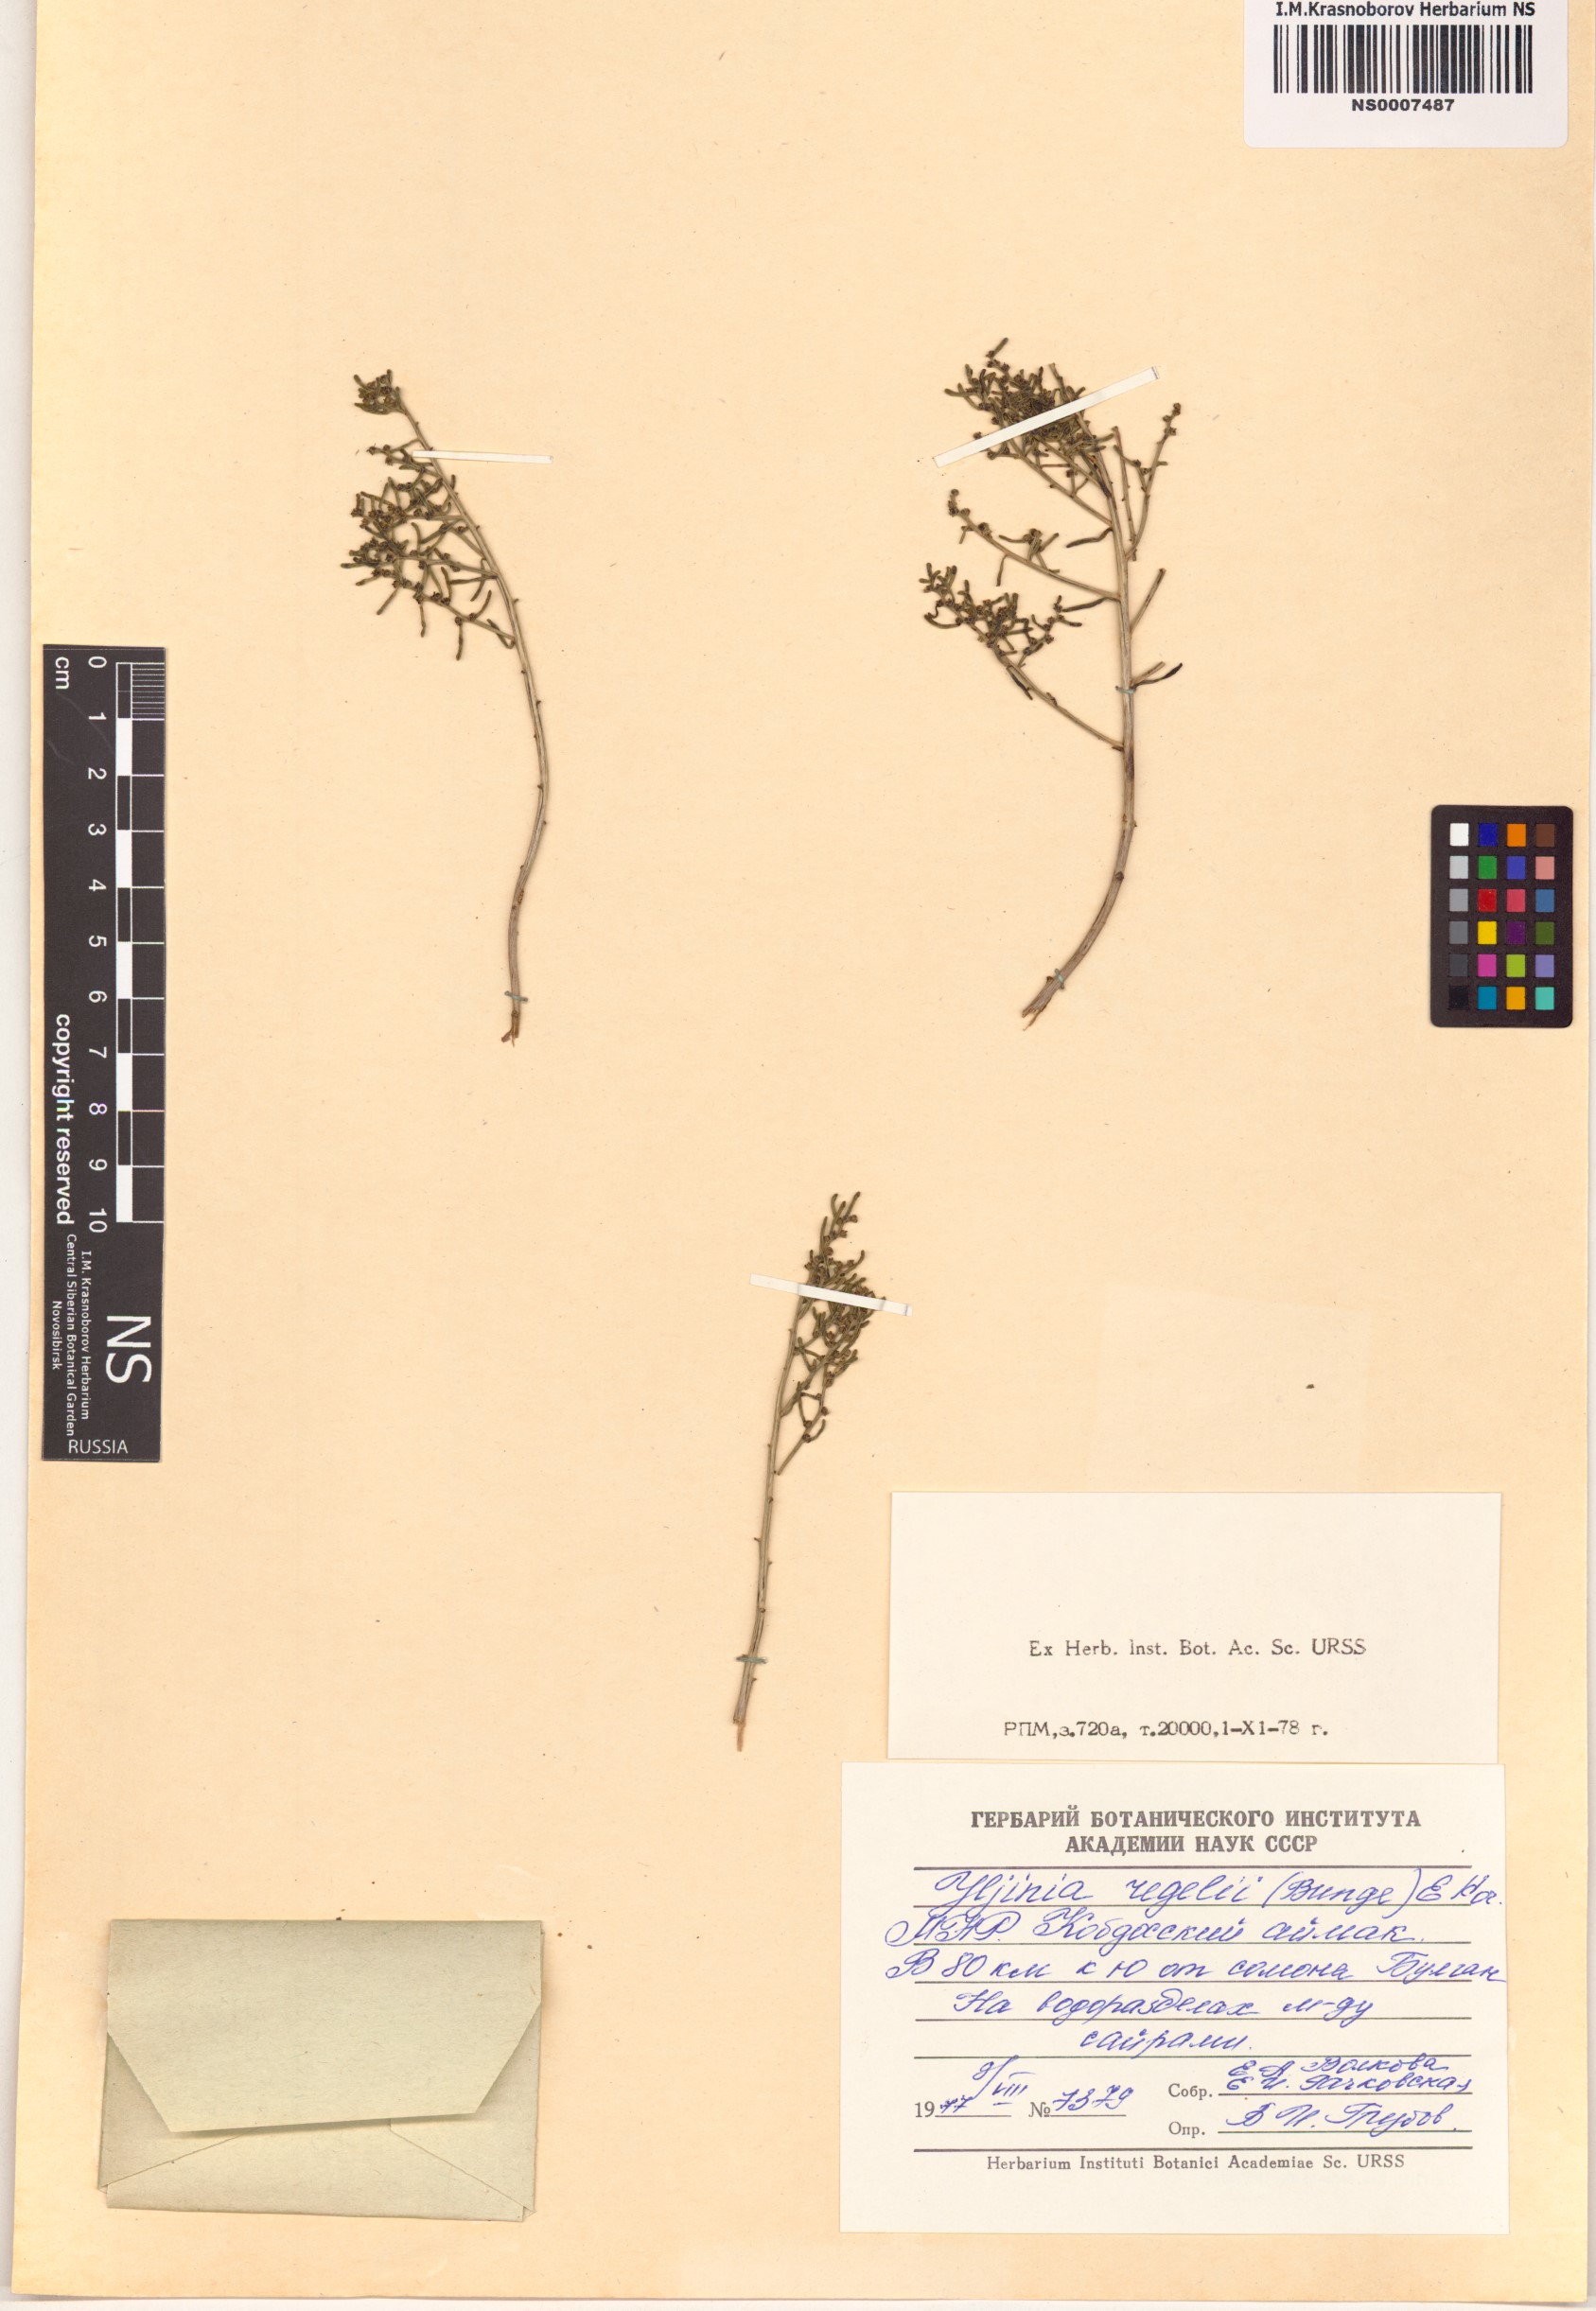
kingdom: Plantae
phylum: Tracheophyta
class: Magnoliopsida
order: Caryophyllales
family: Amaranthaceae
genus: Haloxylon
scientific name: Haloxylon regelii
